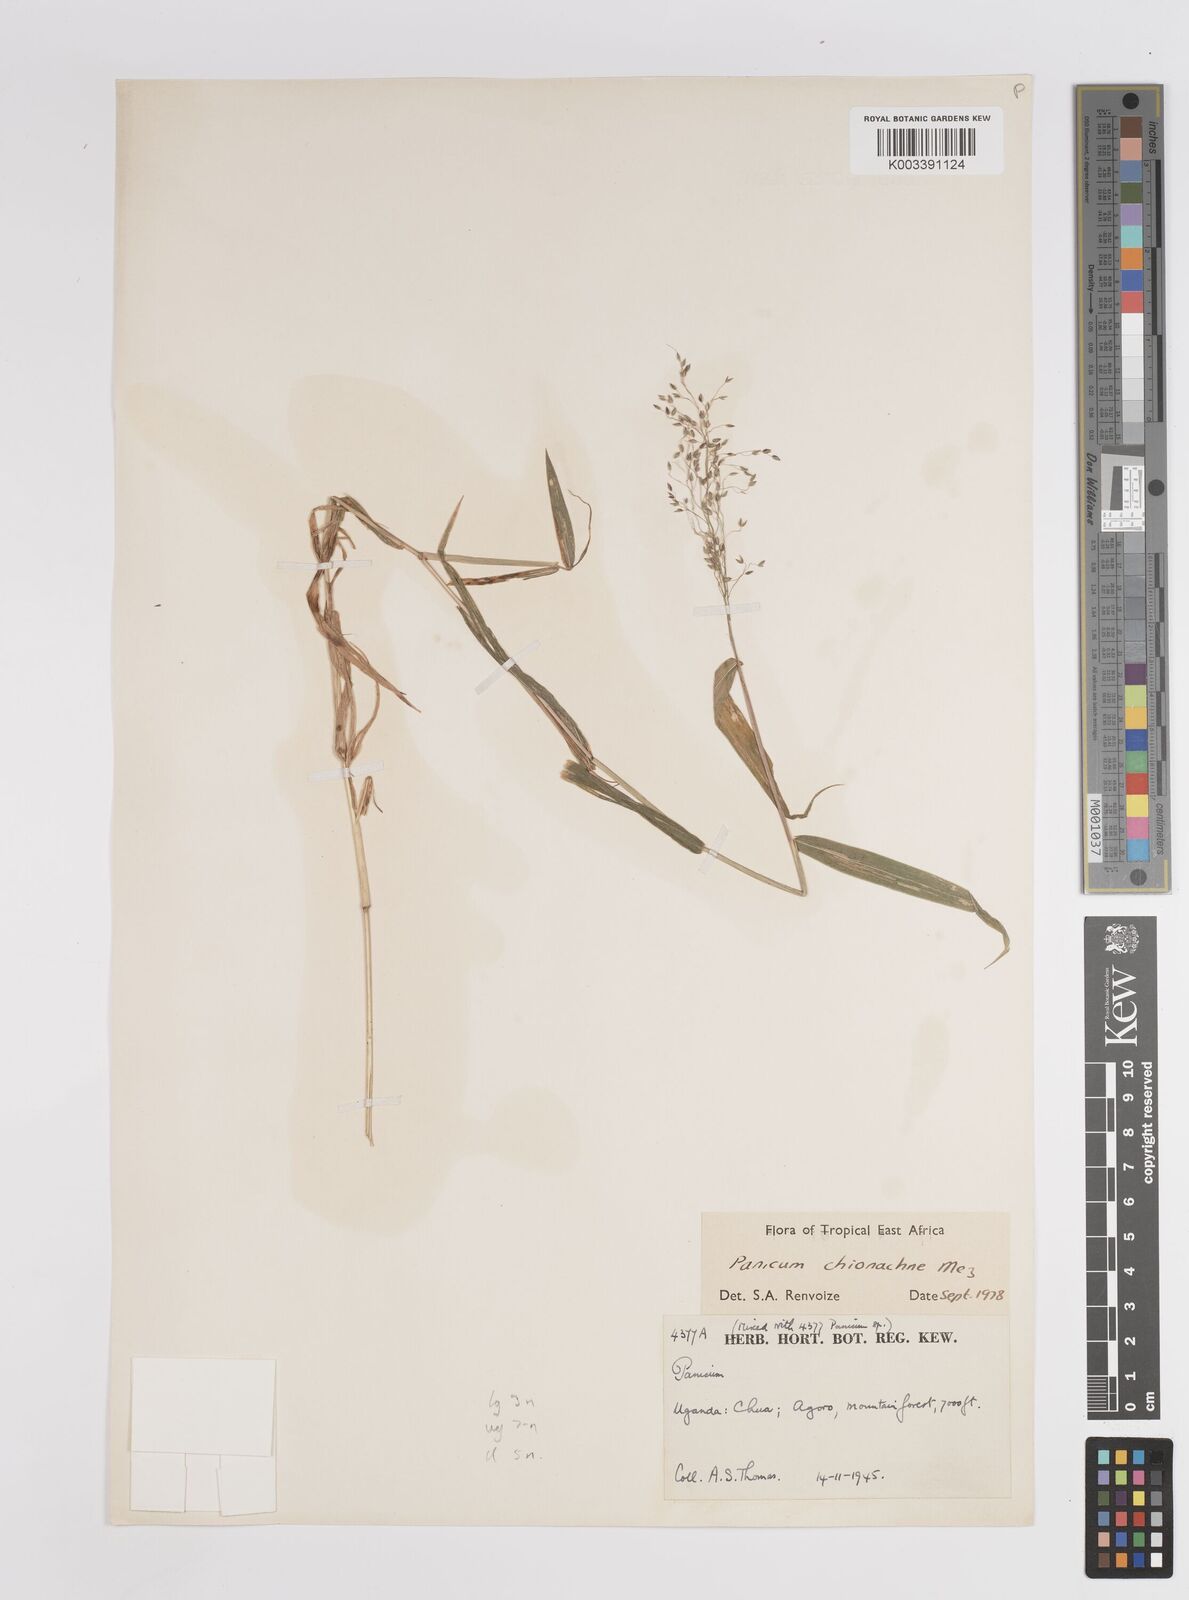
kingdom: Plantae
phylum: Tracheophyta
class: Liliopsida
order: Poales
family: Poaceae
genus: Panicum
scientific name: Panicum chionachne
